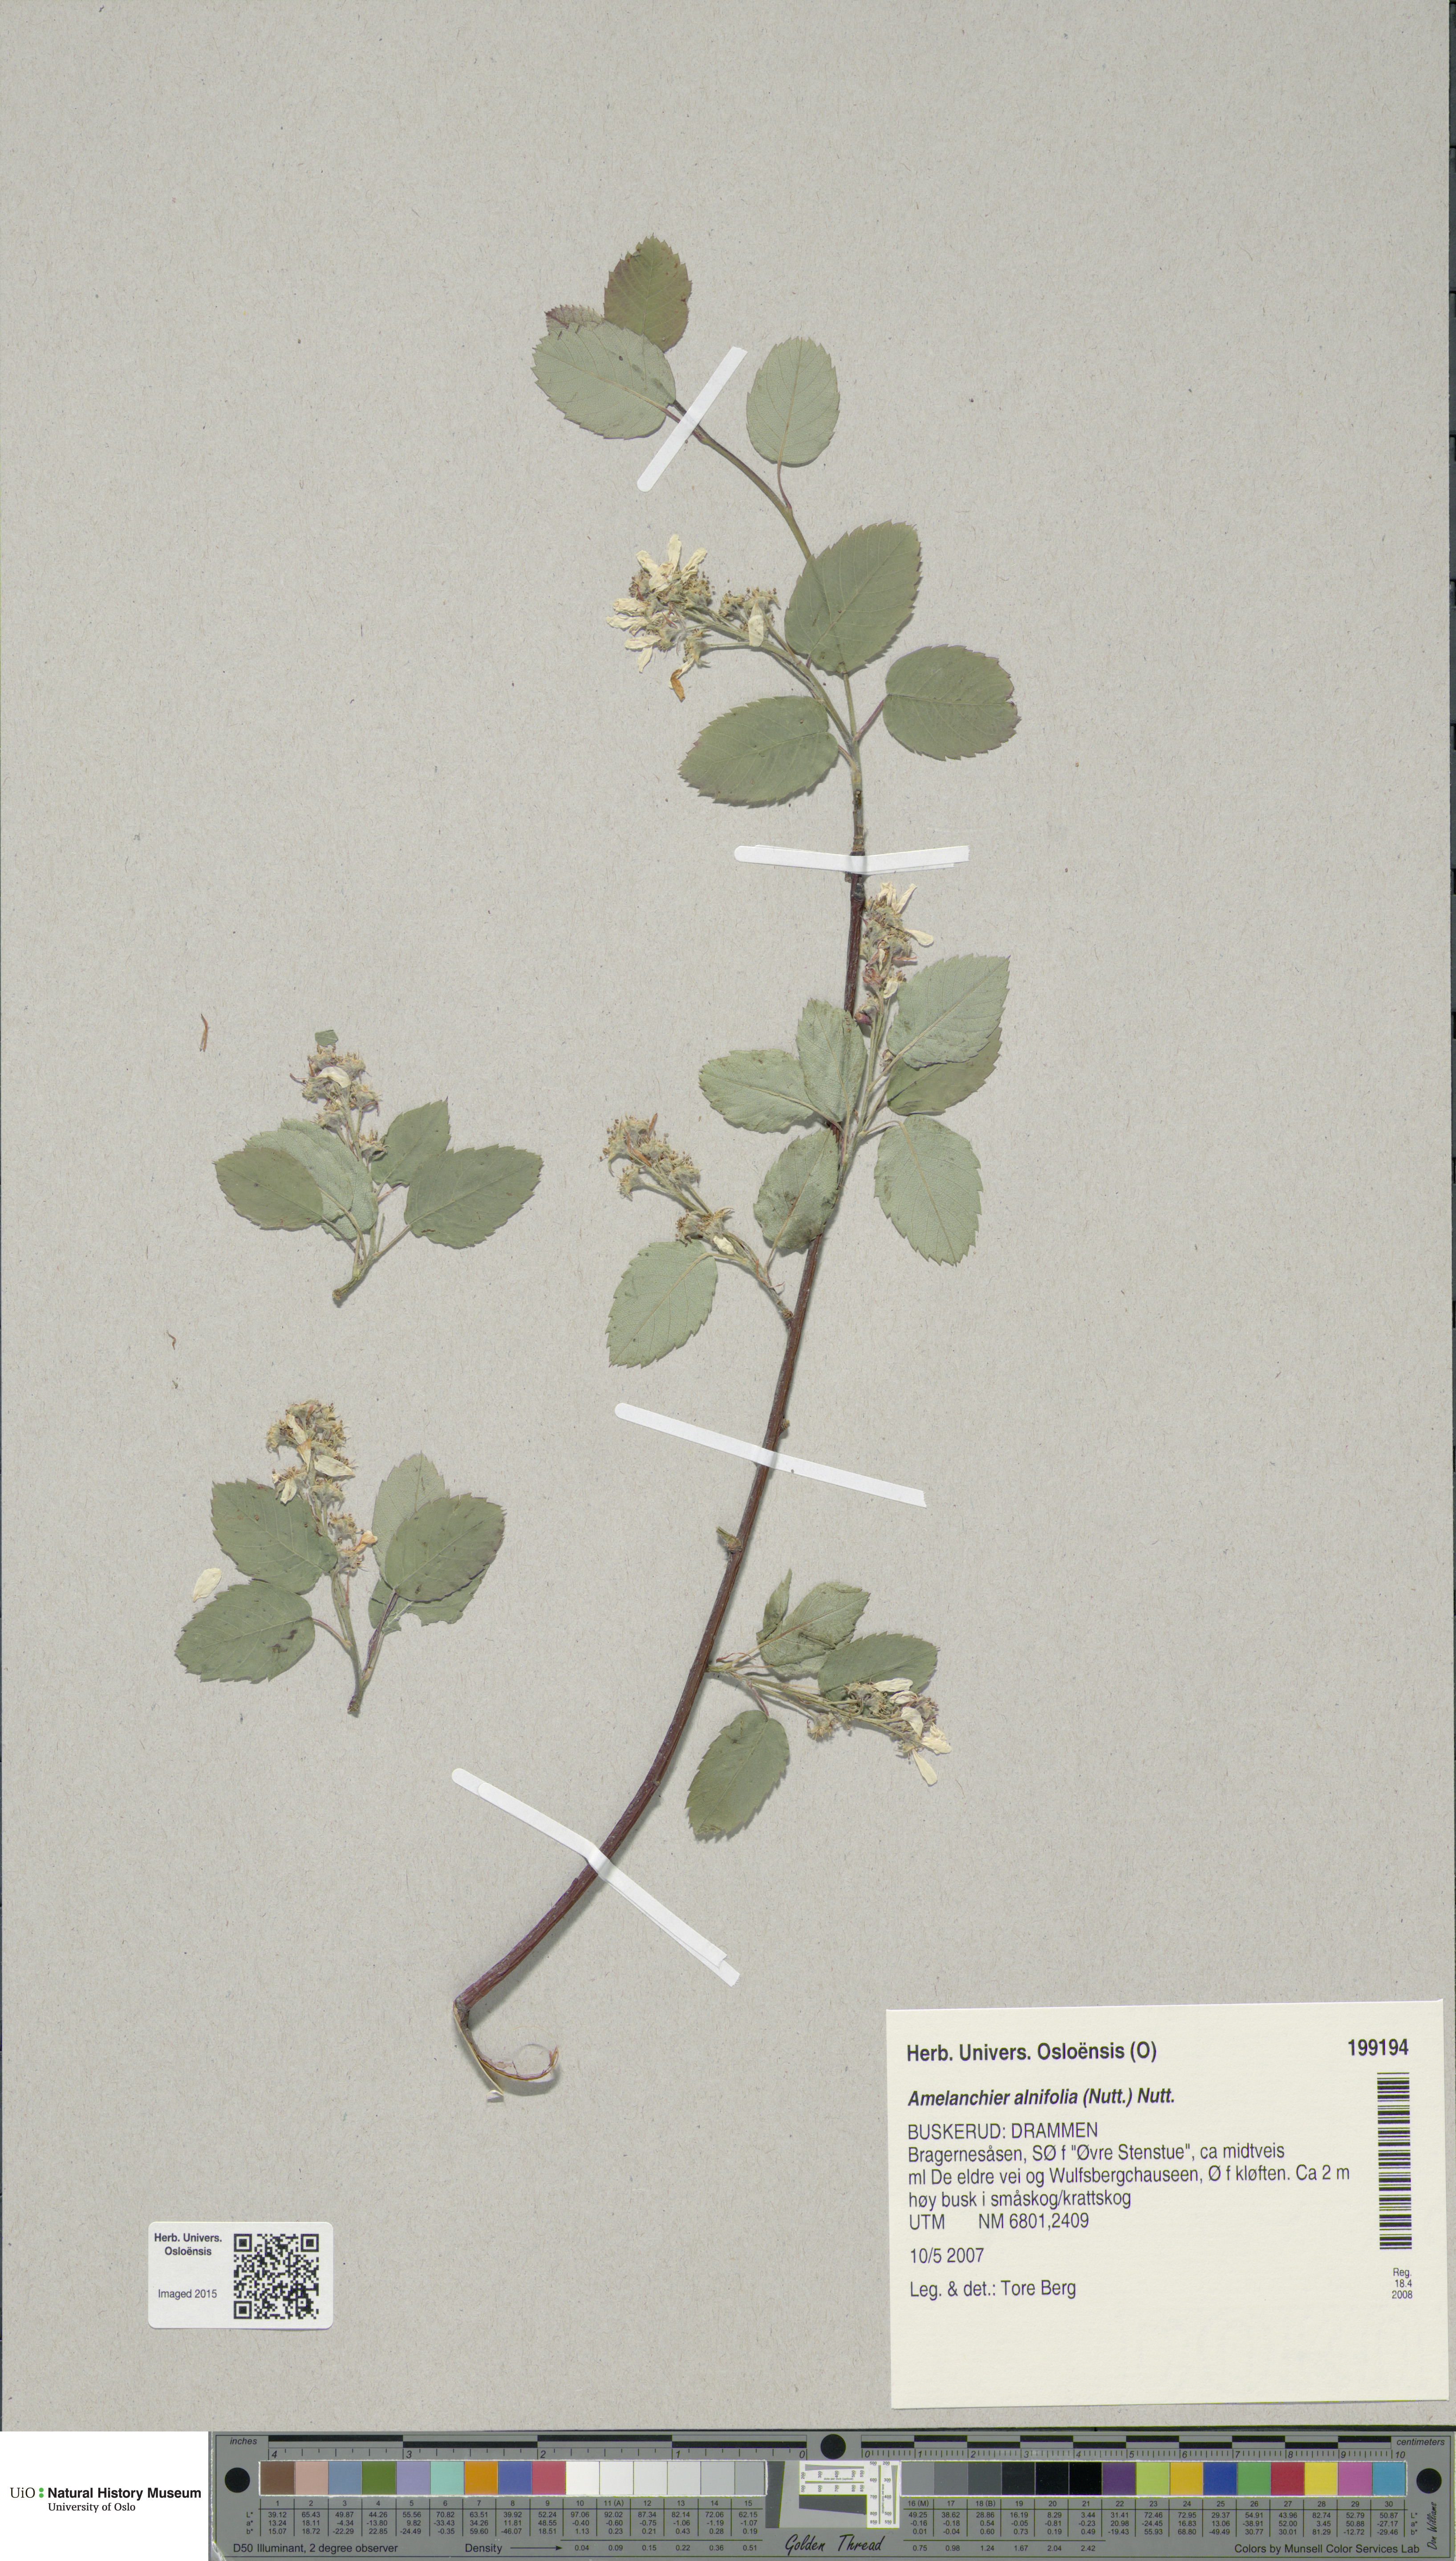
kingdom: Plantae
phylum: Tracheophyta
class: Magnoliopsida
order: Rosales
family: Rosaceae
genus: Amelanchier
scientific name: Amelanchier alnifolia
